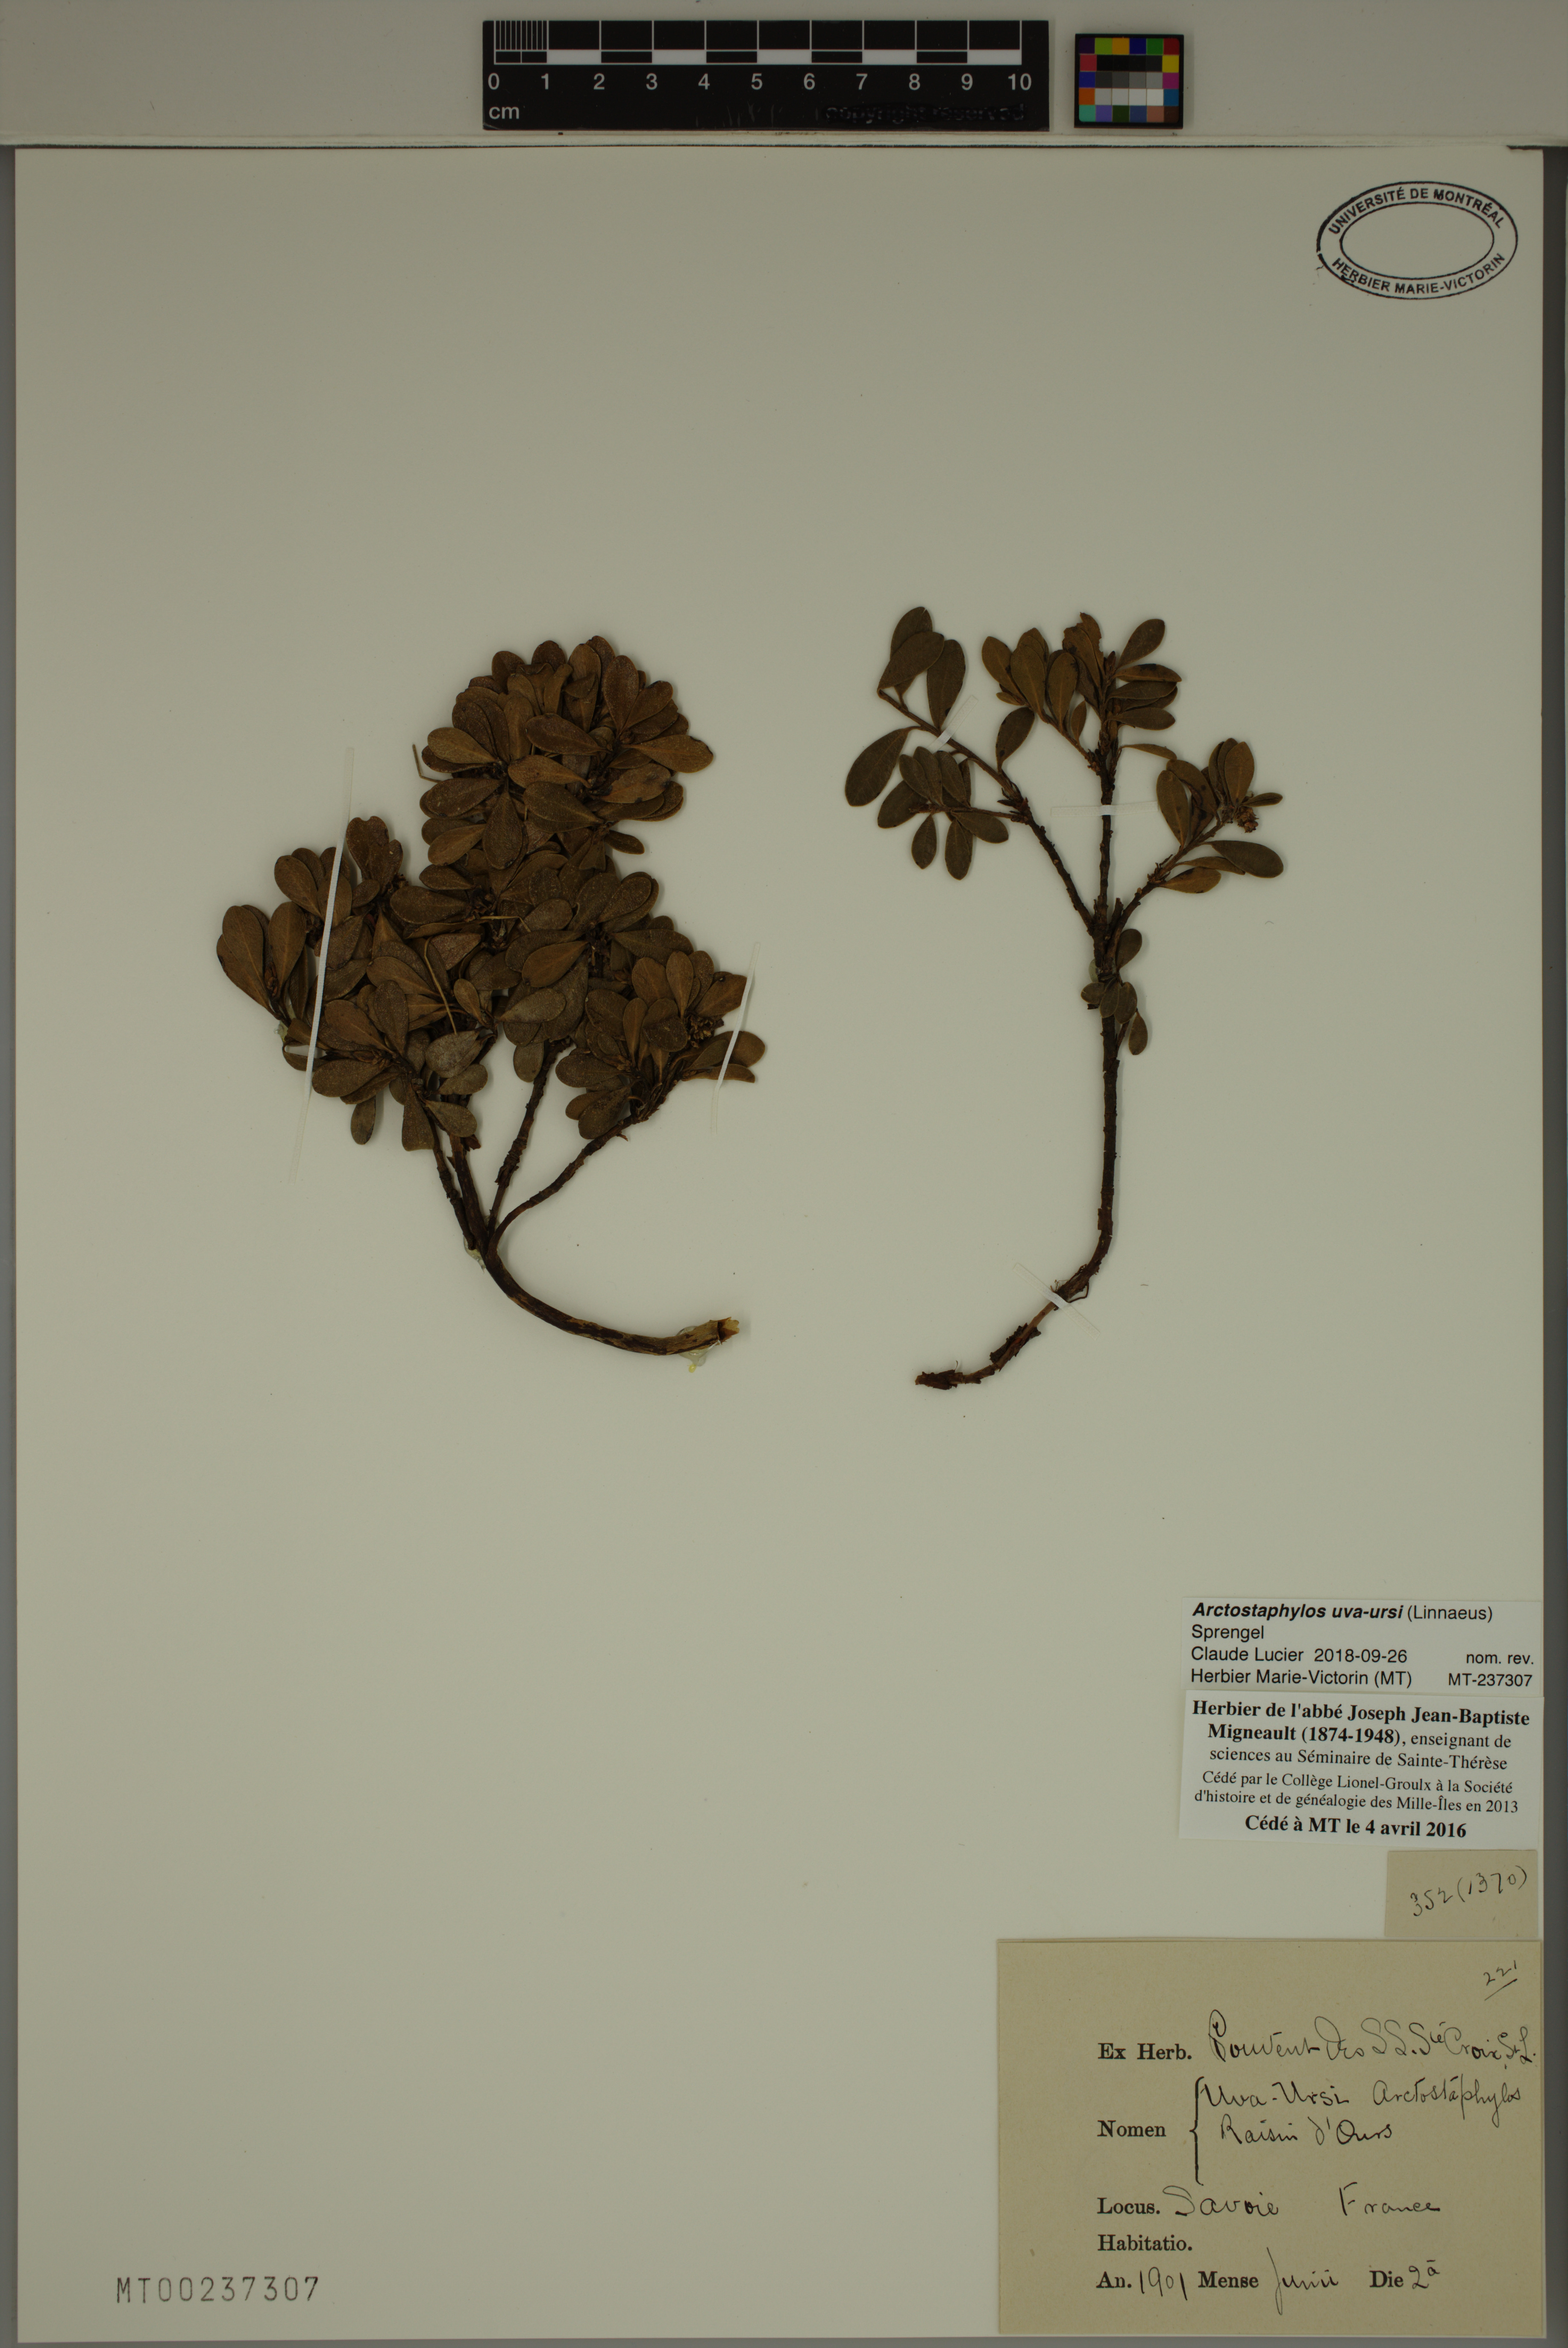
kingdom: Plantae
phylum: Tracheophyta
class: Magnoliopsida
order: Ericales
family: Ericaceae
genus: Arctostaphylos
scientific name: Arctostaphylos uva-ursi
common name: Bearberry
